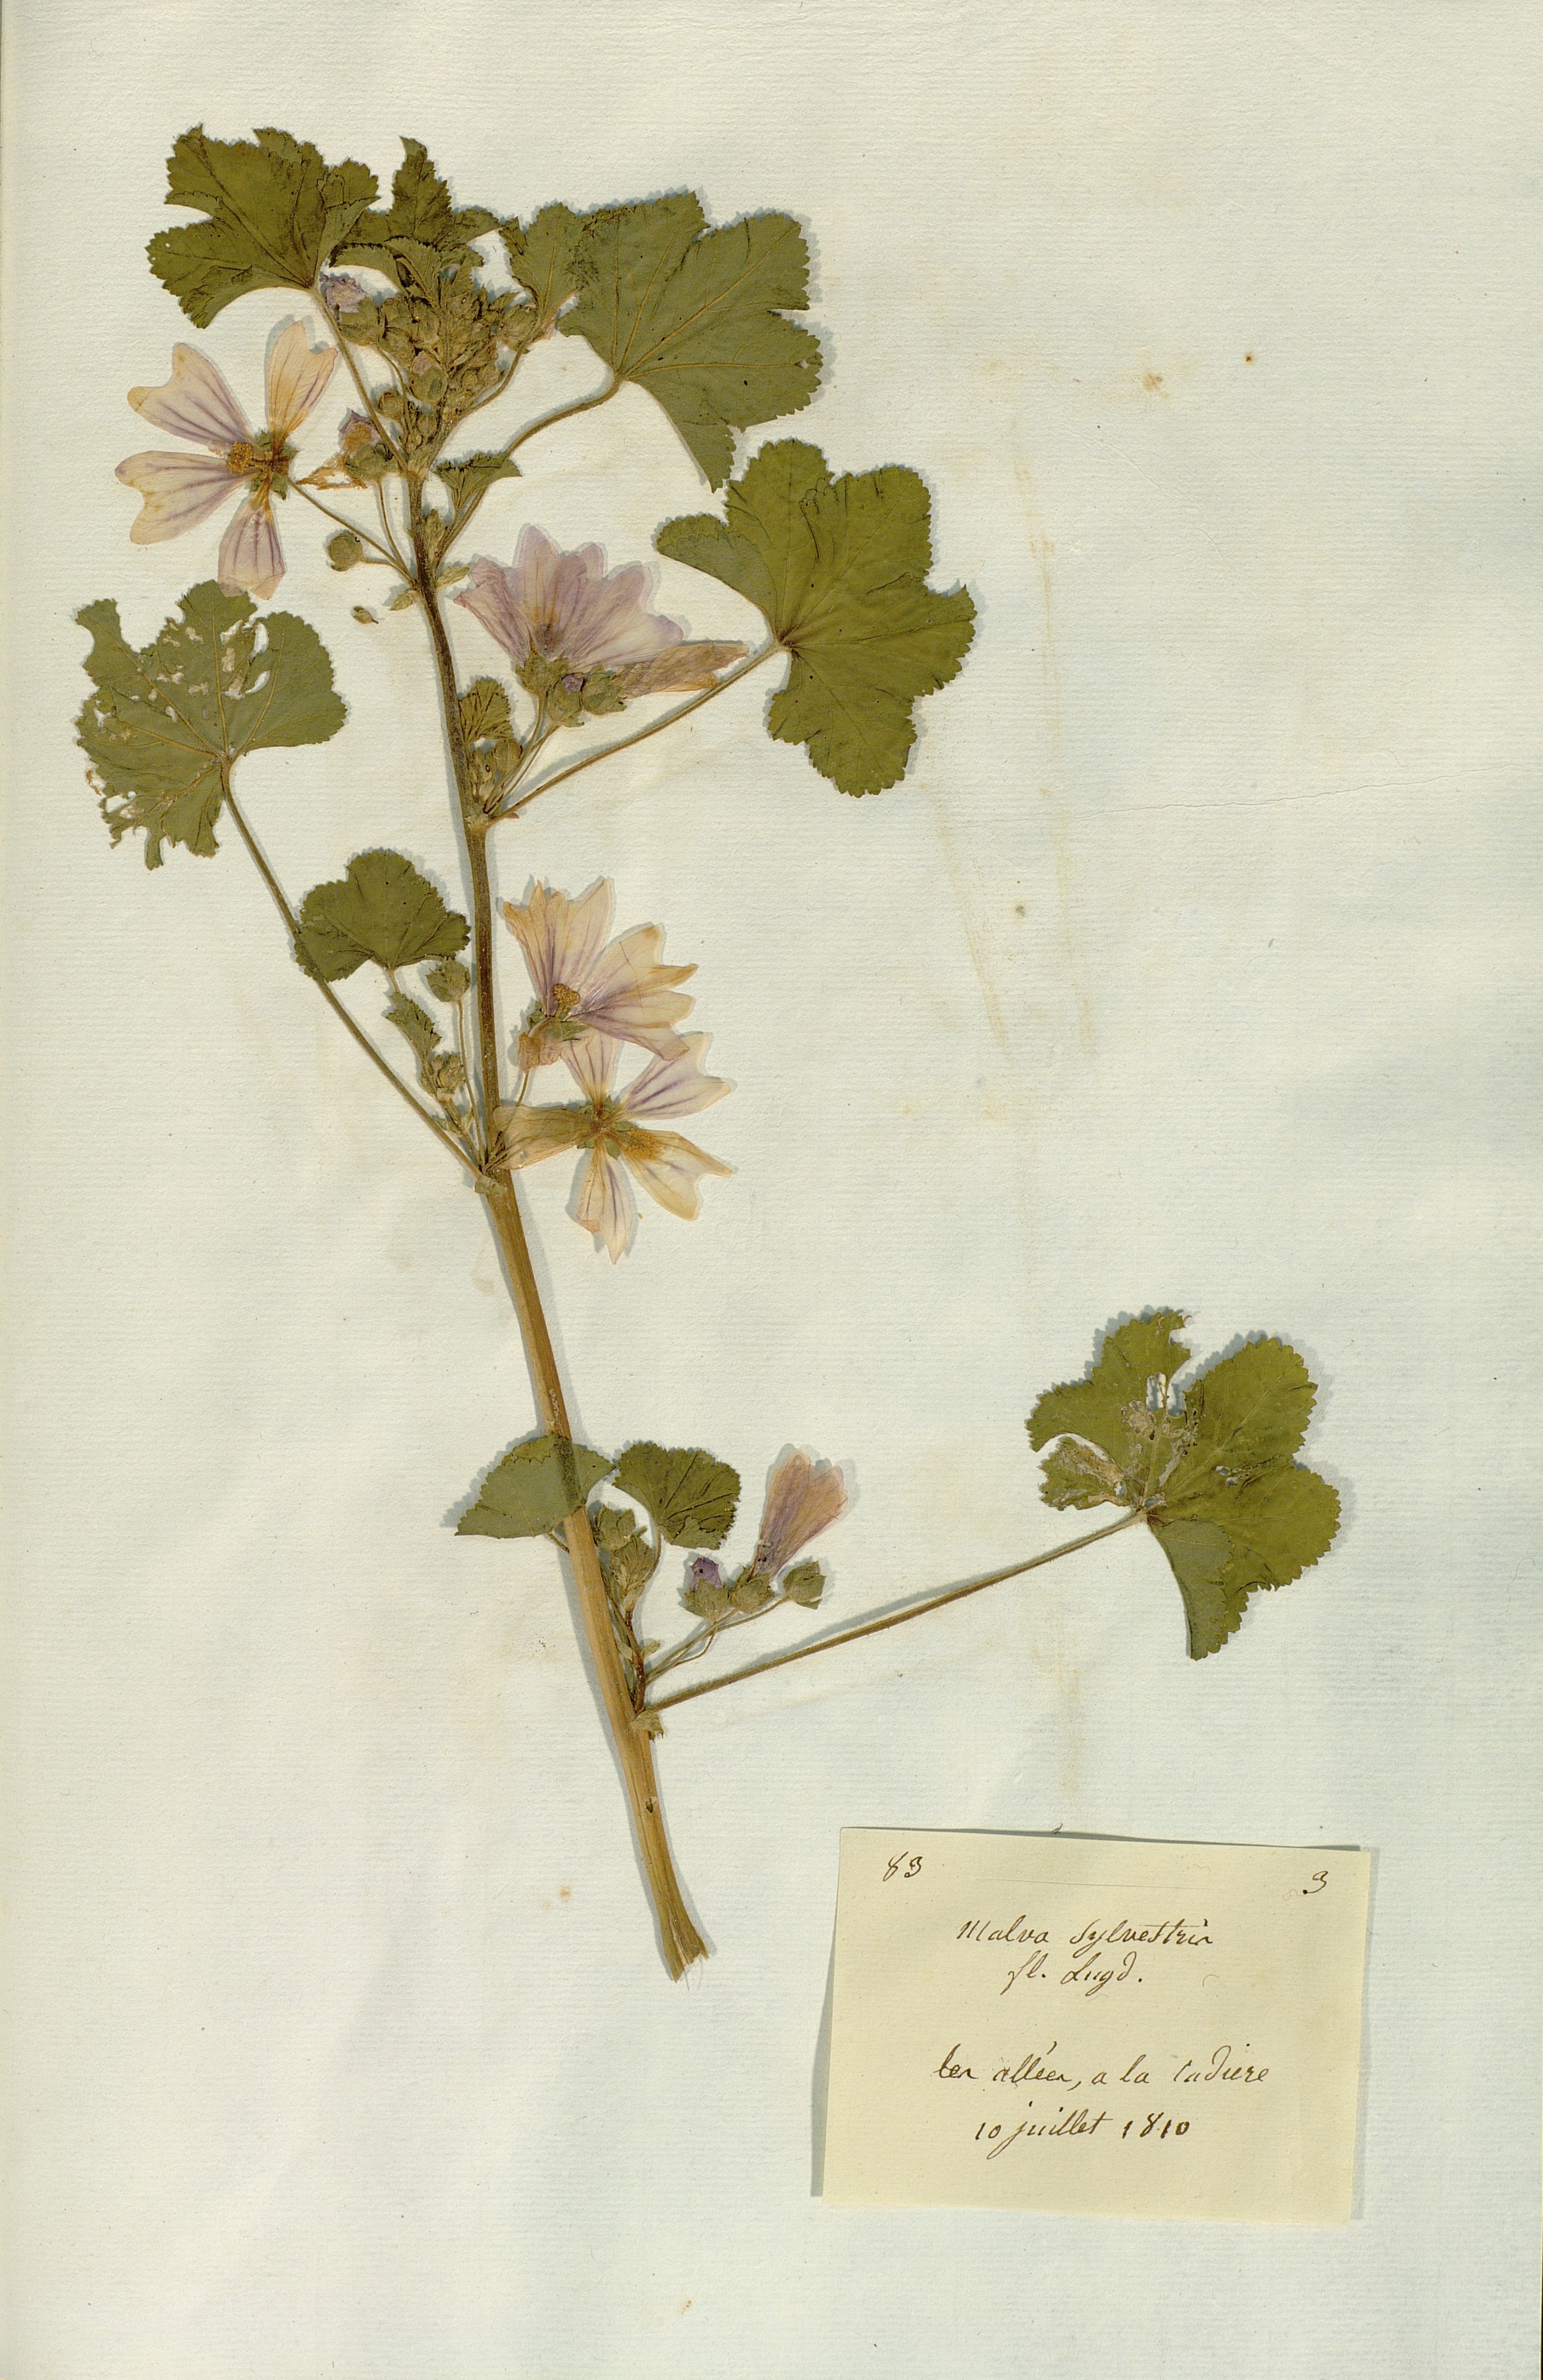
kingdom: Plantae
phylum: Tracheophyta
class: Magnoliopsida
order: Malvales
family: Malvaceae
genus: Malva
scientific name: Malva sylvestris
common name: Common mallow
